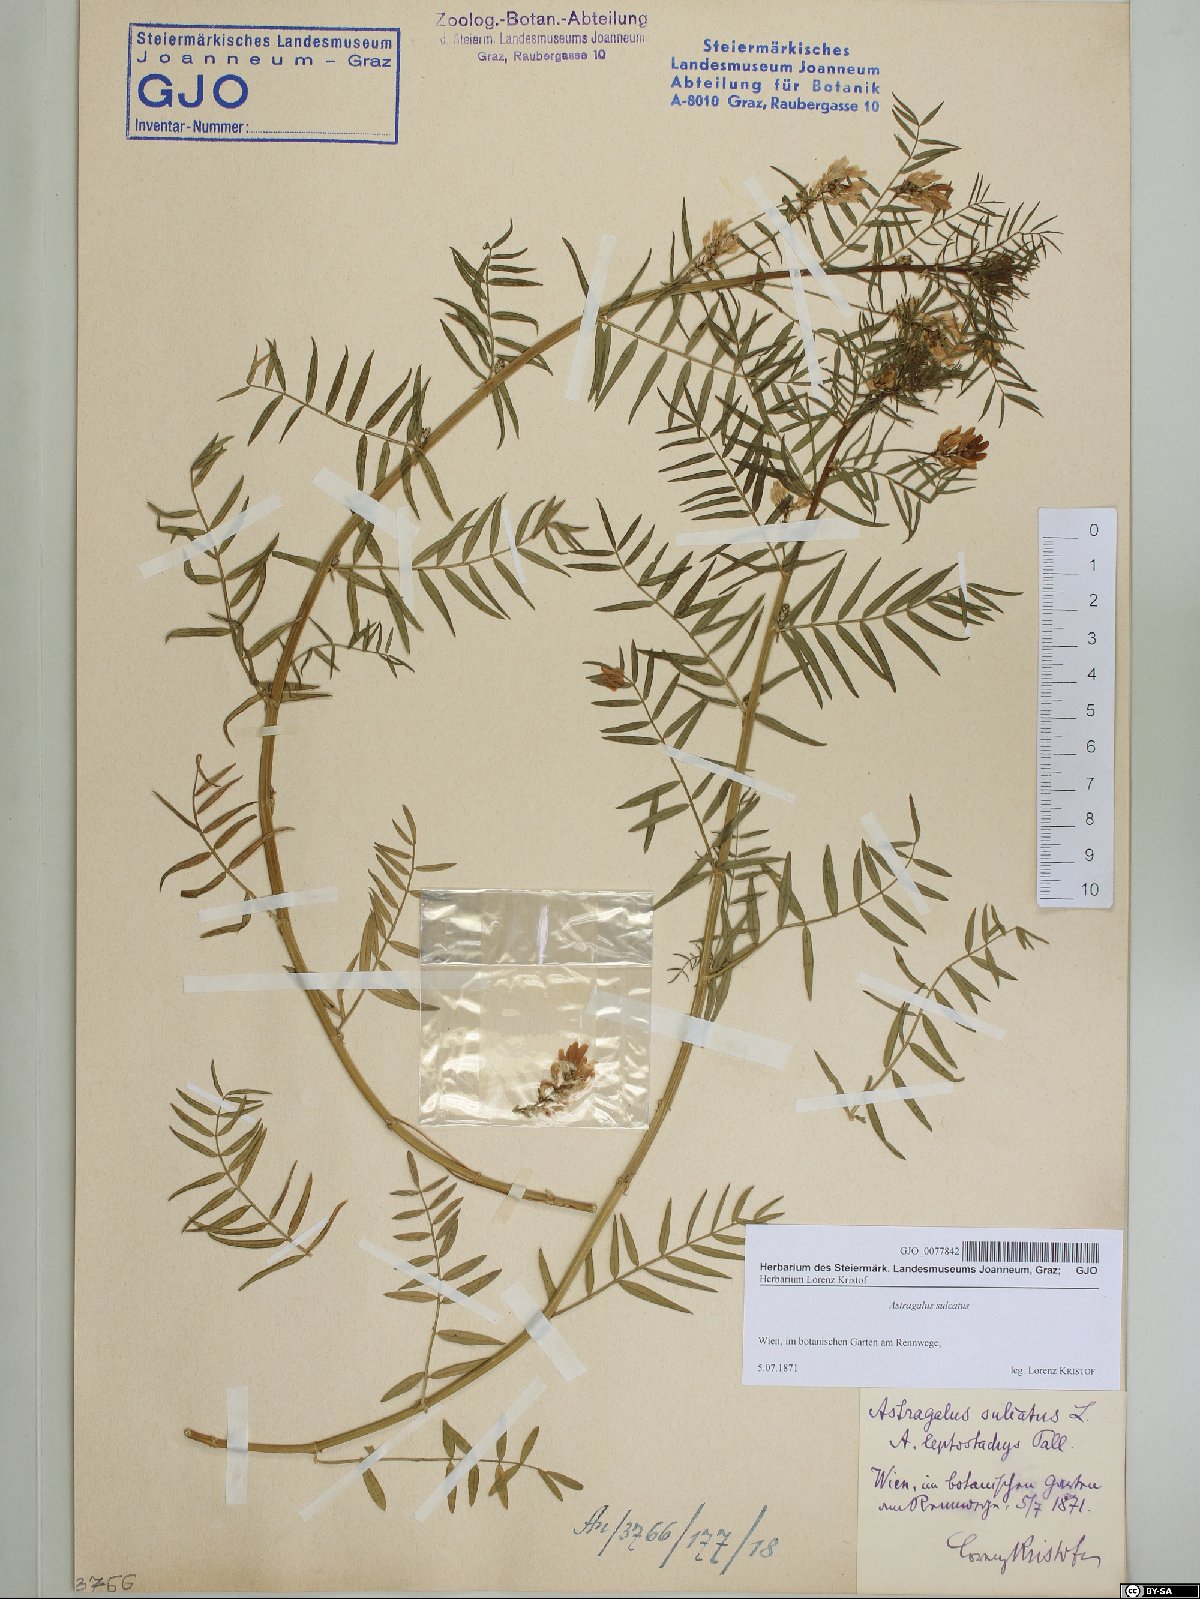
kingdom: Plantae
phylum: Tracheophyta
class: Magnoliopsida
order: Fabales
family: Fabaceae
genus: Astragalus
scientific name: Astragalus sulcatus
